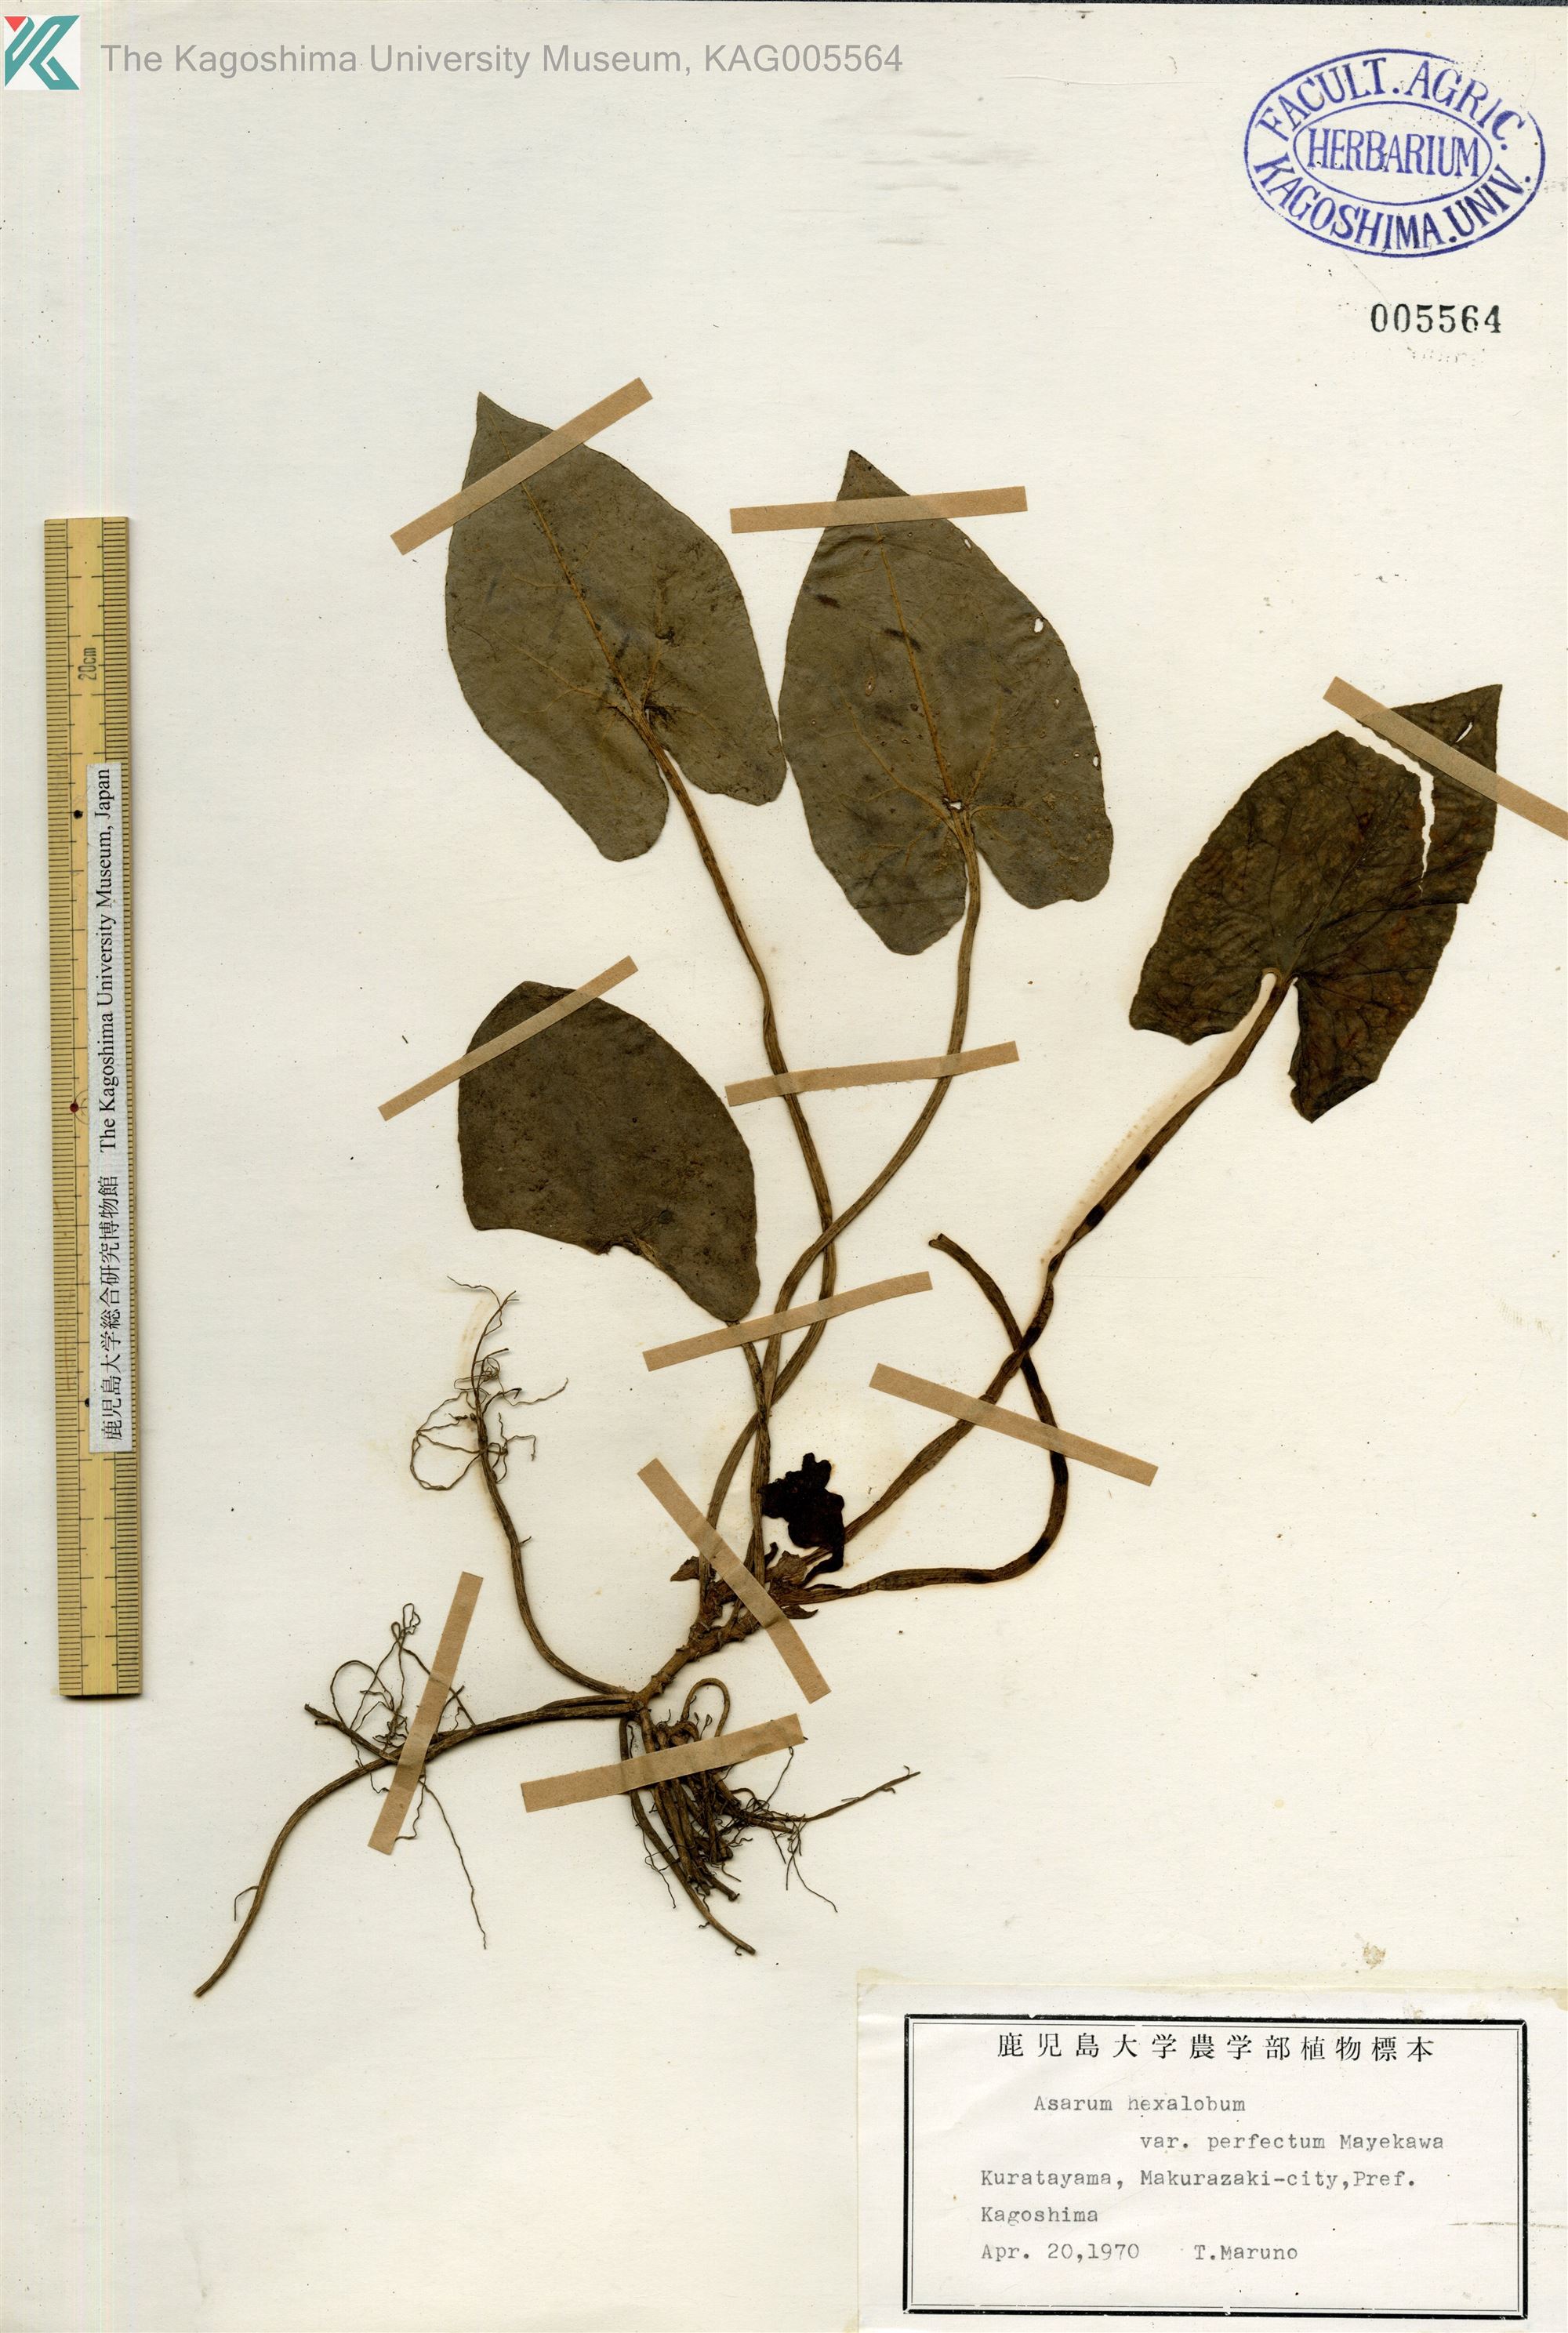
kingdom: Plantae
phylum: Tracheophyta
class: Magnoliopsida
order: Piperales
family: Aristolochiaceae
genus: Asarum
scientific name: Asarum hexalobum
